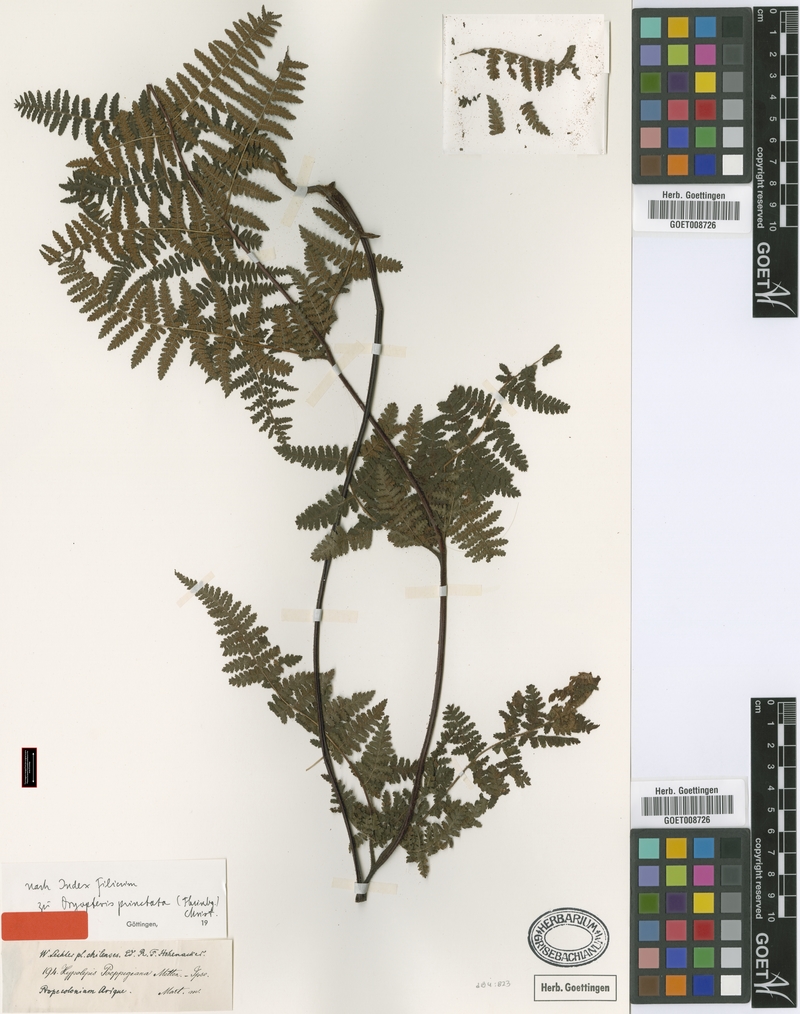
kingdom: Plantae
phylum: Tracheophyta
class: Polypodiopsida
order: Polypodiales
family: Dennstaedtiaceae
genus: Hypolepis
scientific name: Hypolepis punctata
